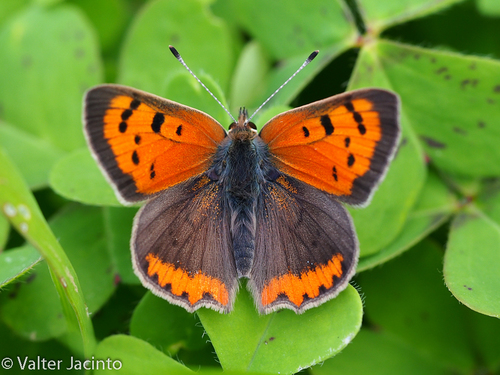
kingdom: Animalia
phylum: Arthropoda
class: Insecta
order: Lepidoptera
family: Lycaenidae
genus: Lycaena
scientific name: Lycaena phlaeas
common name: Small copper
